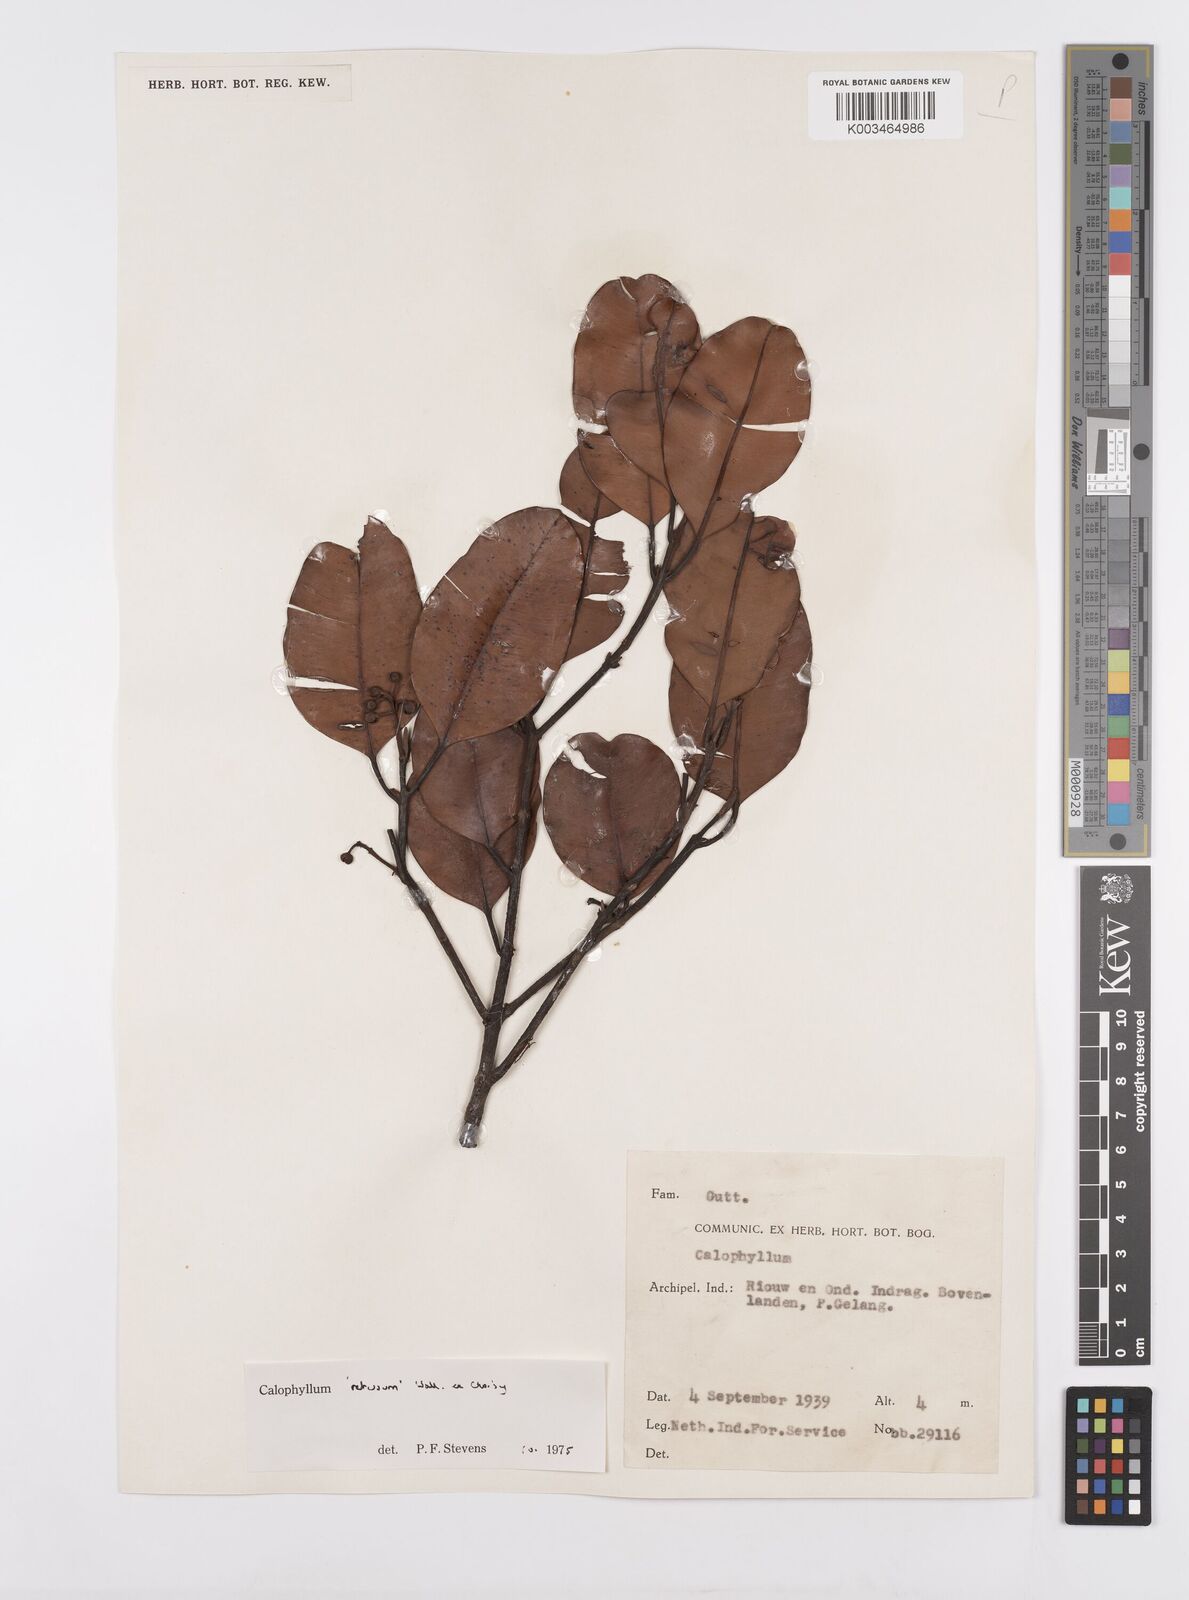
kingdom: Plantae
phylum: Tracheophyta
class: Magnoliopsida
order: Malpighiales
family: Calophyllaceae
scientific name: Calophyllaceae
